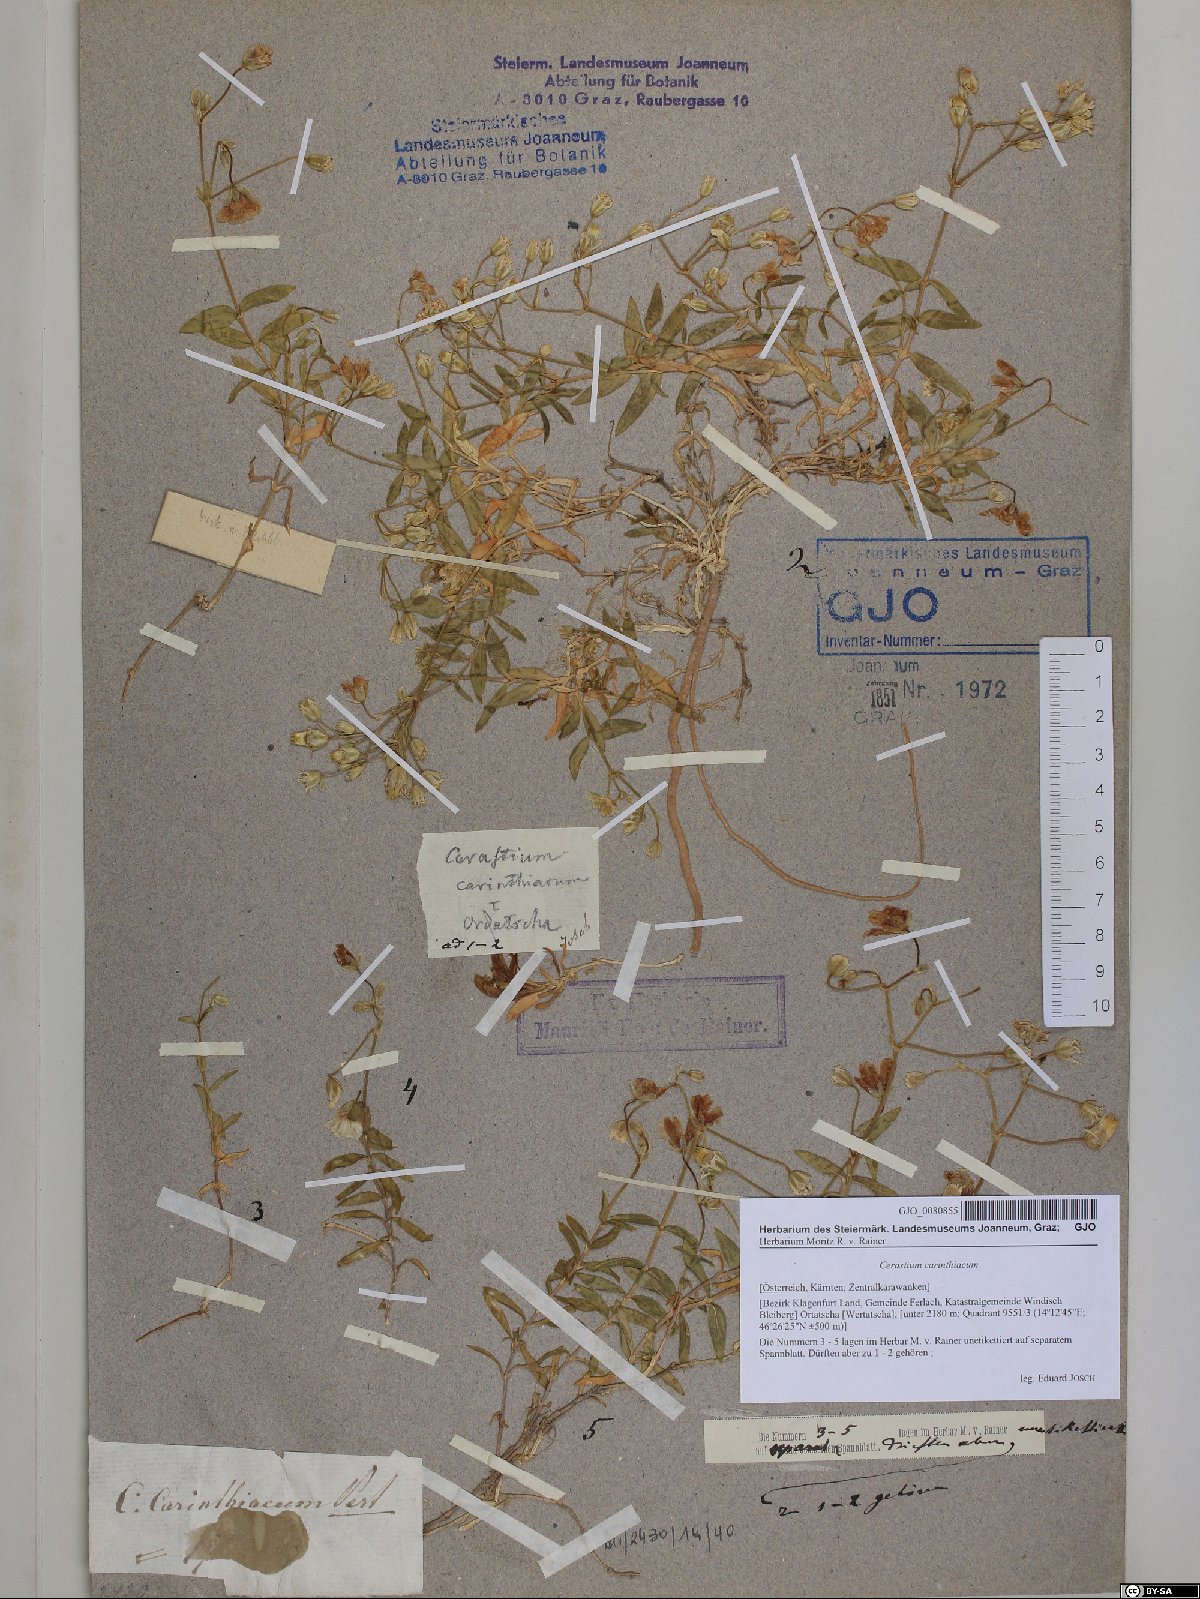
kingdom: Plantae
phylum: Tracheophyta
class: Magnoliopsida
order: Caryophyllales
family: Caryophyllaceae
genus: Cerastium
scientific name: Cerastium carinthiacum
